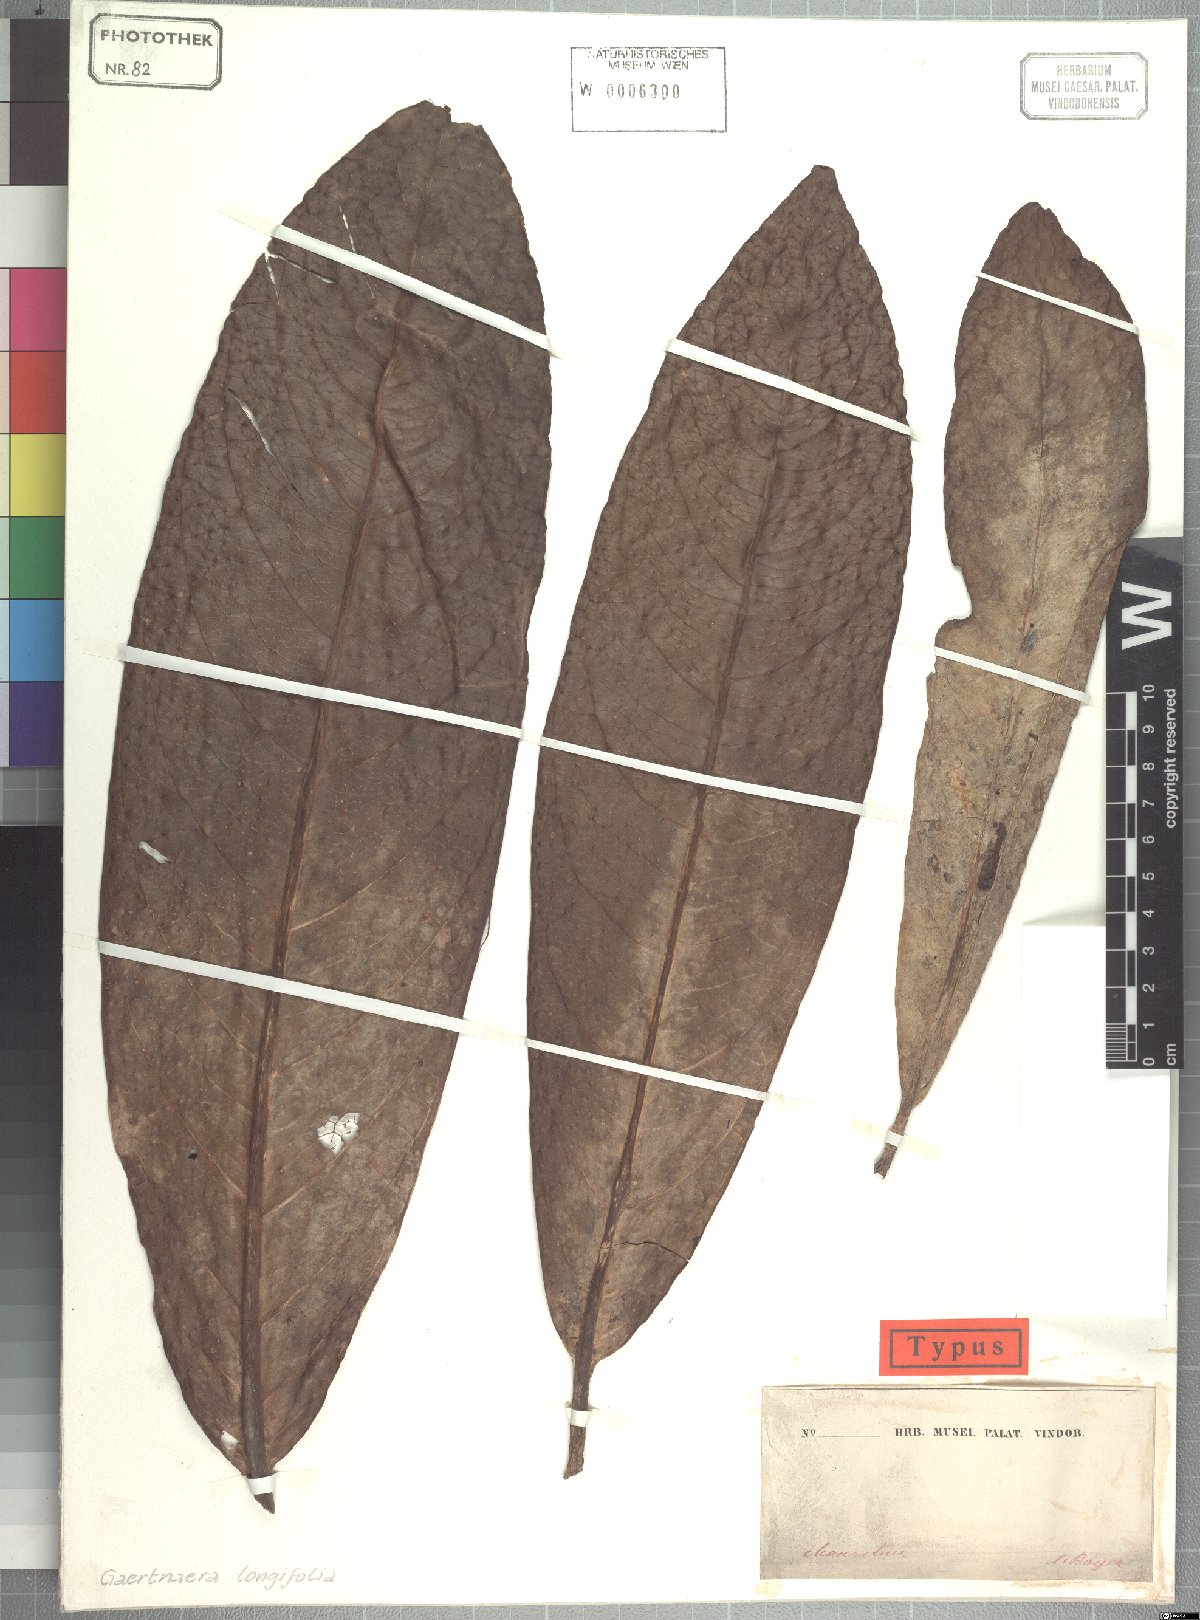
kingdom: Plantae
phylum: Tracheophyta
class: Magnoliopsida
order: Gentianales
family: Rubiaceae
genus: Gaertnera
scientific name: Gaertnera longifolia
